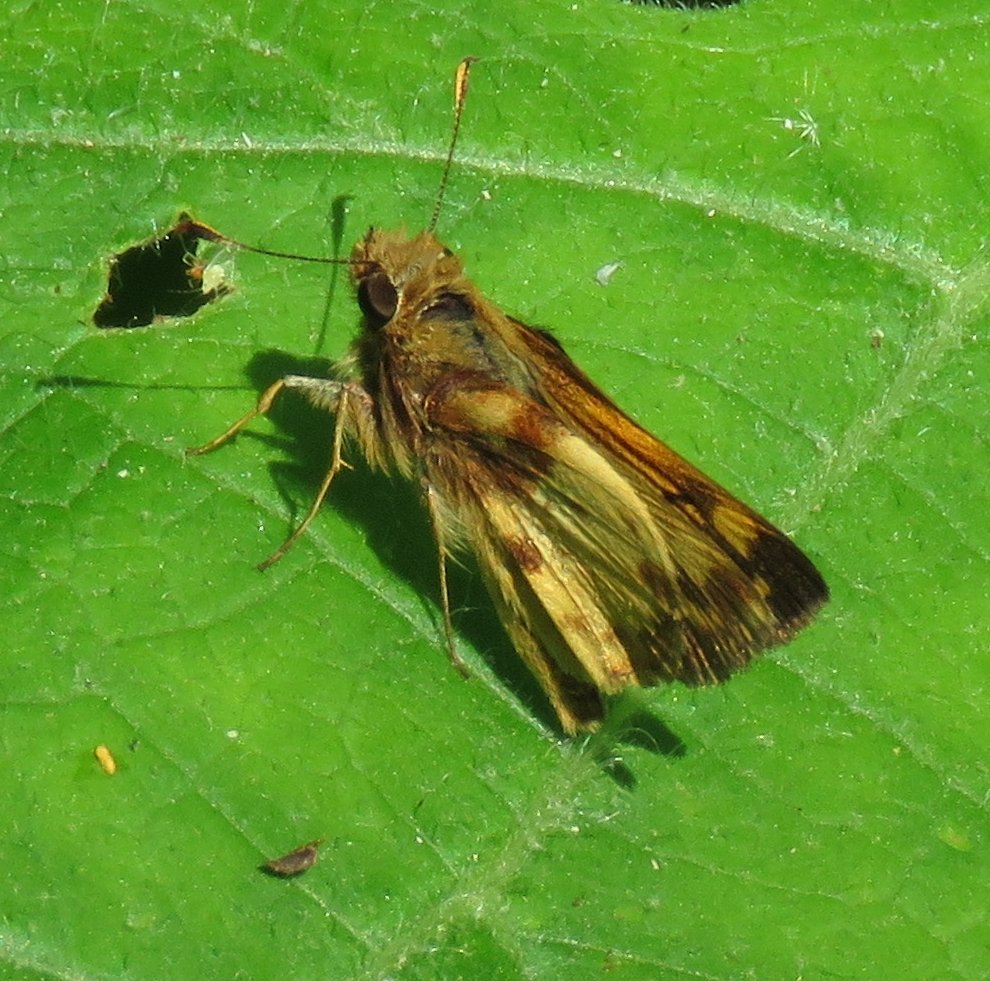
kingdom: Animalia
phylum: Arthropoda
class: Insecta
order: Lepidoptera
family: Hesperiidae
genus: Lon
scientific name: Lon zabulon
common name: Zabulon Skipper
